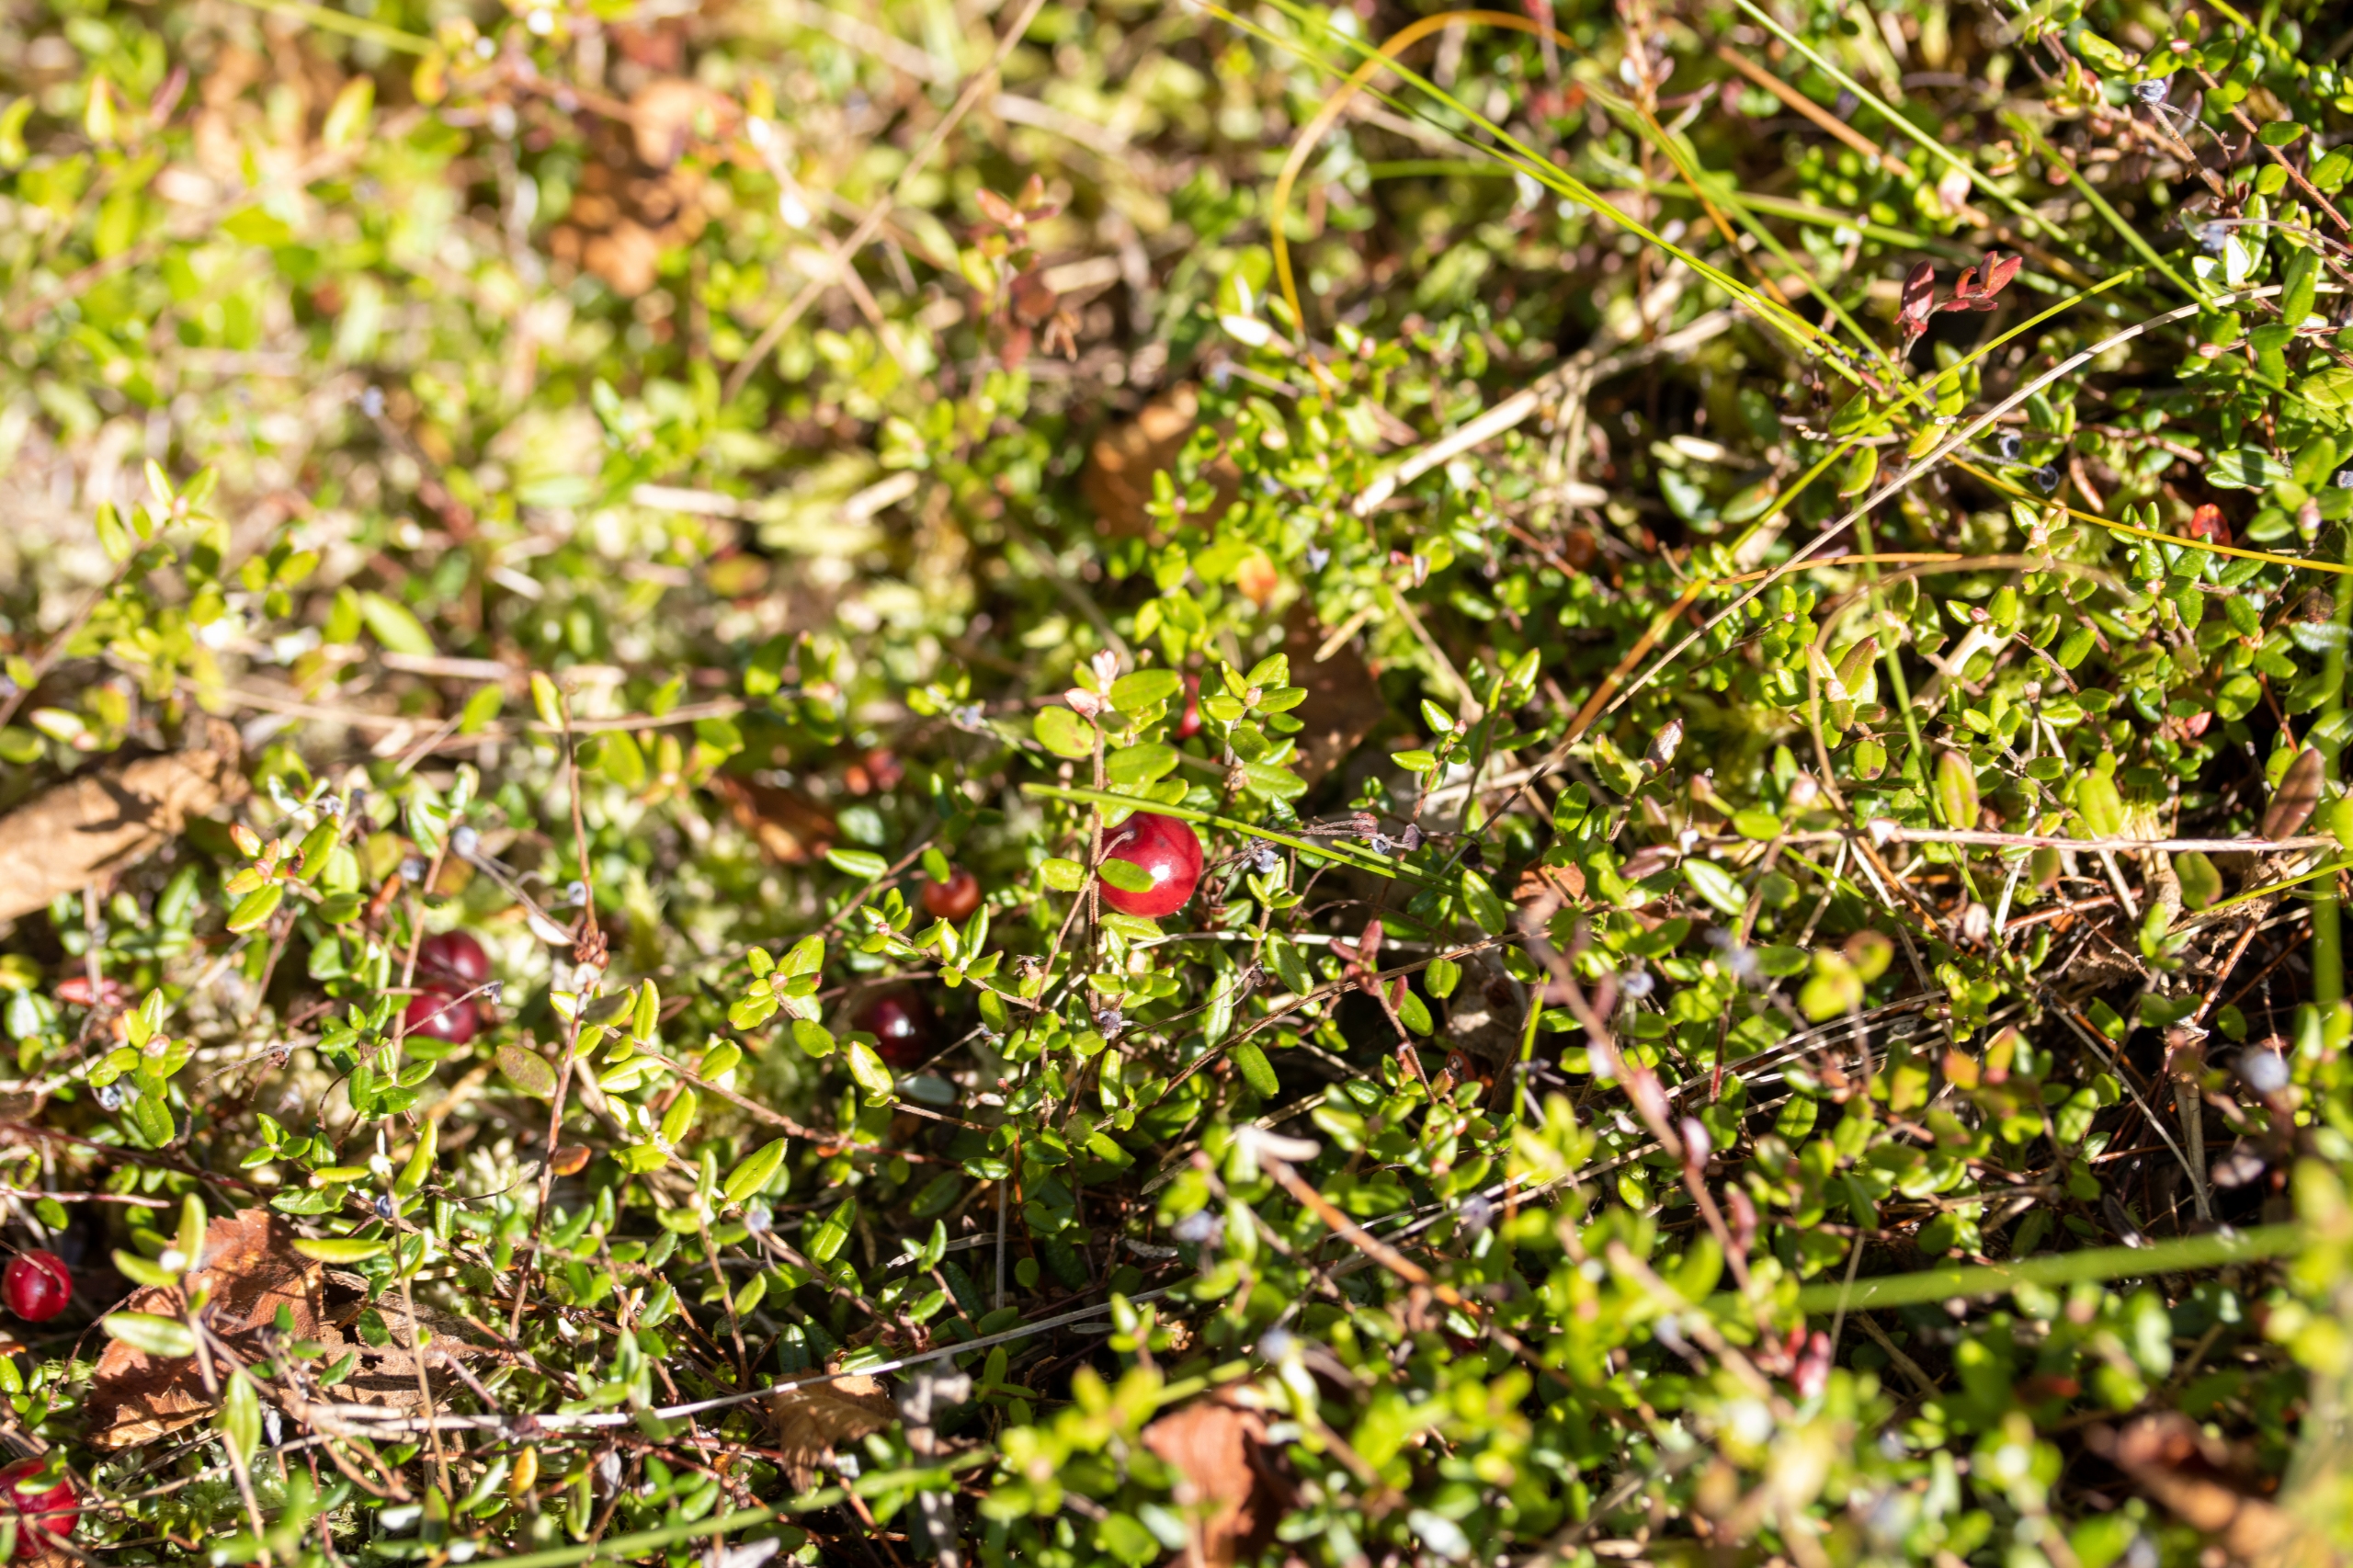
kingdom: Plantae
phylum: Tracheophyta
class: Magnoliopsida
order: Ericales
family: Ericaceae
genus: Vaccinium
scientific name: Vaccinium oxycoccos
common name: Tranebær
